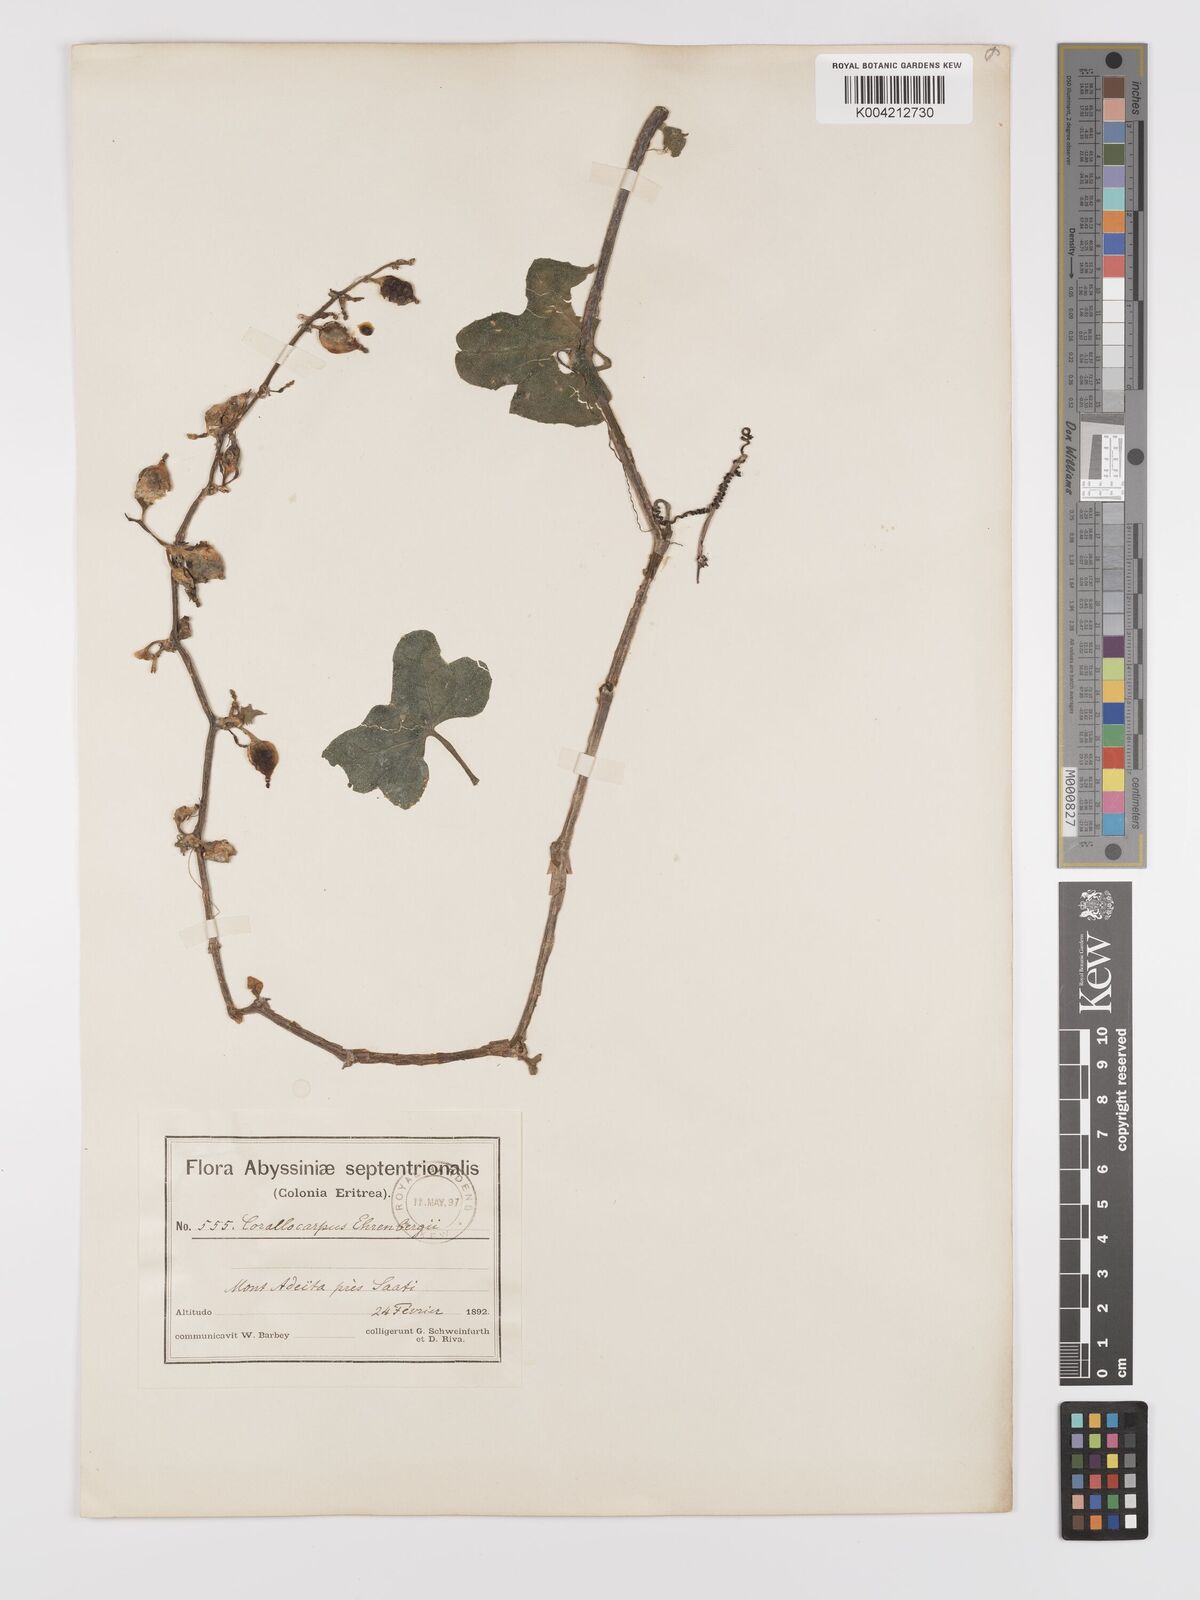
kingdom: Plantae
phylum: Tracheophyta
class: Magnoliopsida
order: Cucurbitales
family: Cucurbitaceae
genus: Corallocarpus
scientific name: Corallocarpus schimperi
